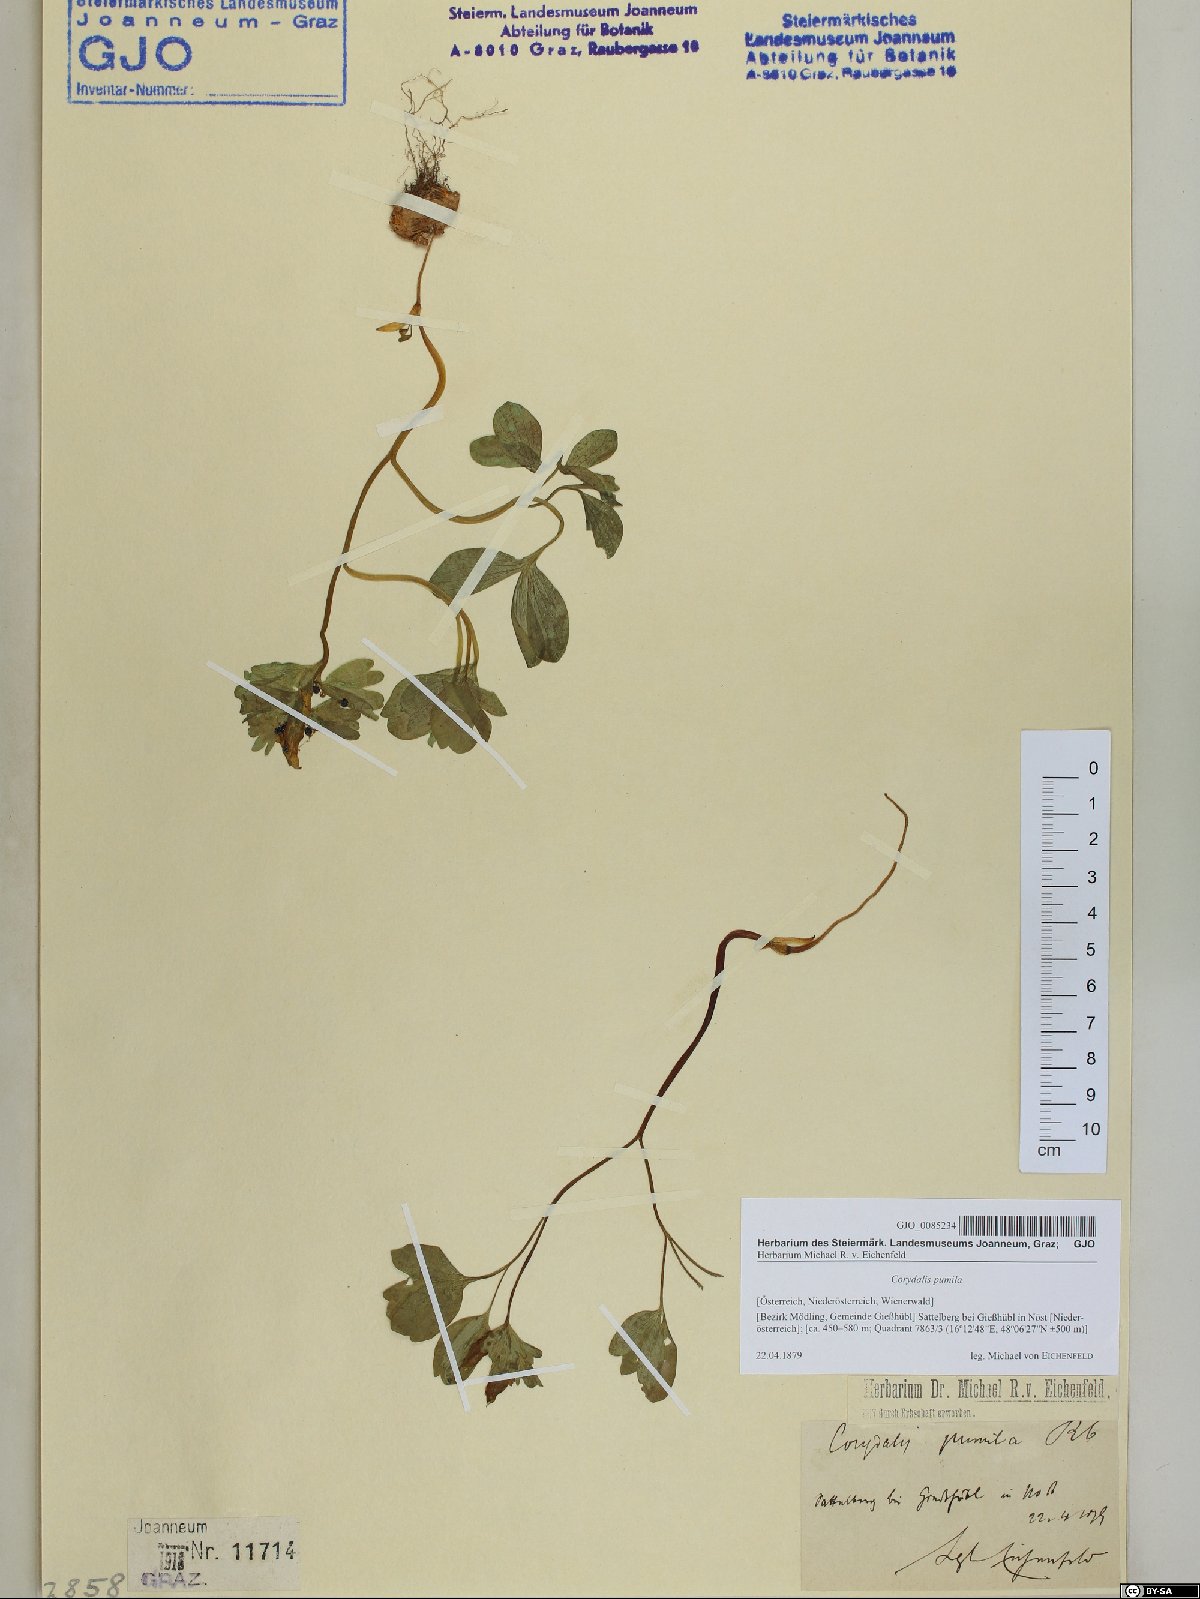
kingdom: Plantae
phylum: Tracheophyta
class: Magnoliopsida
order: Ranunculales
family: Papaveraceae
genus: Corydalis
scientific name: Corydalis pumila
